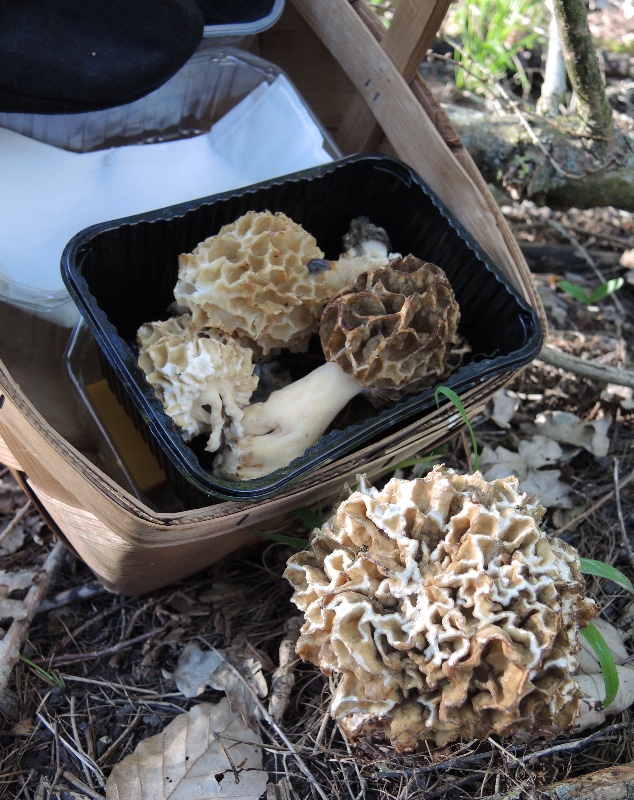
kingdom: Fungi
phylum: Ascomycota
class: Pezizomycetes
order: Pezizales
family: Morchellaceae
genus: Morchella
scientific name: Morchella esculenta
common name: spiselig morkel
